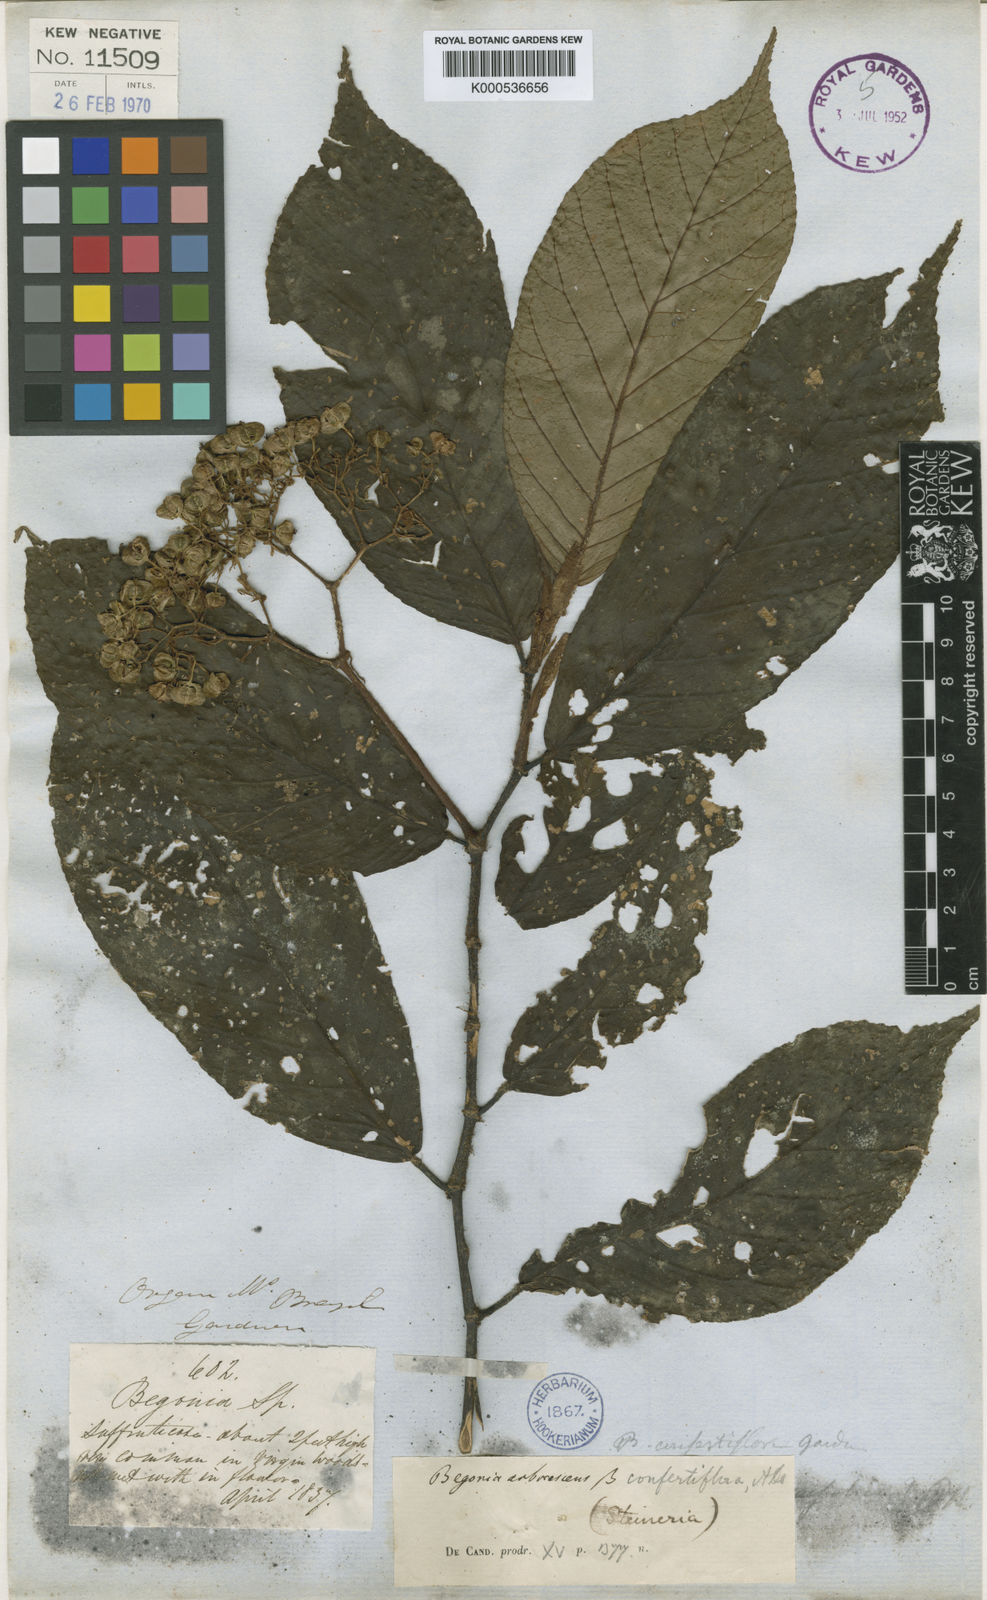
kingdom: Plantae
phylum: Tracheophyta
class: Magnoliopsida
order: Cucurbitales
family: Begoniaceae
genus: Begonia
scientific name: Begonia arborescens
